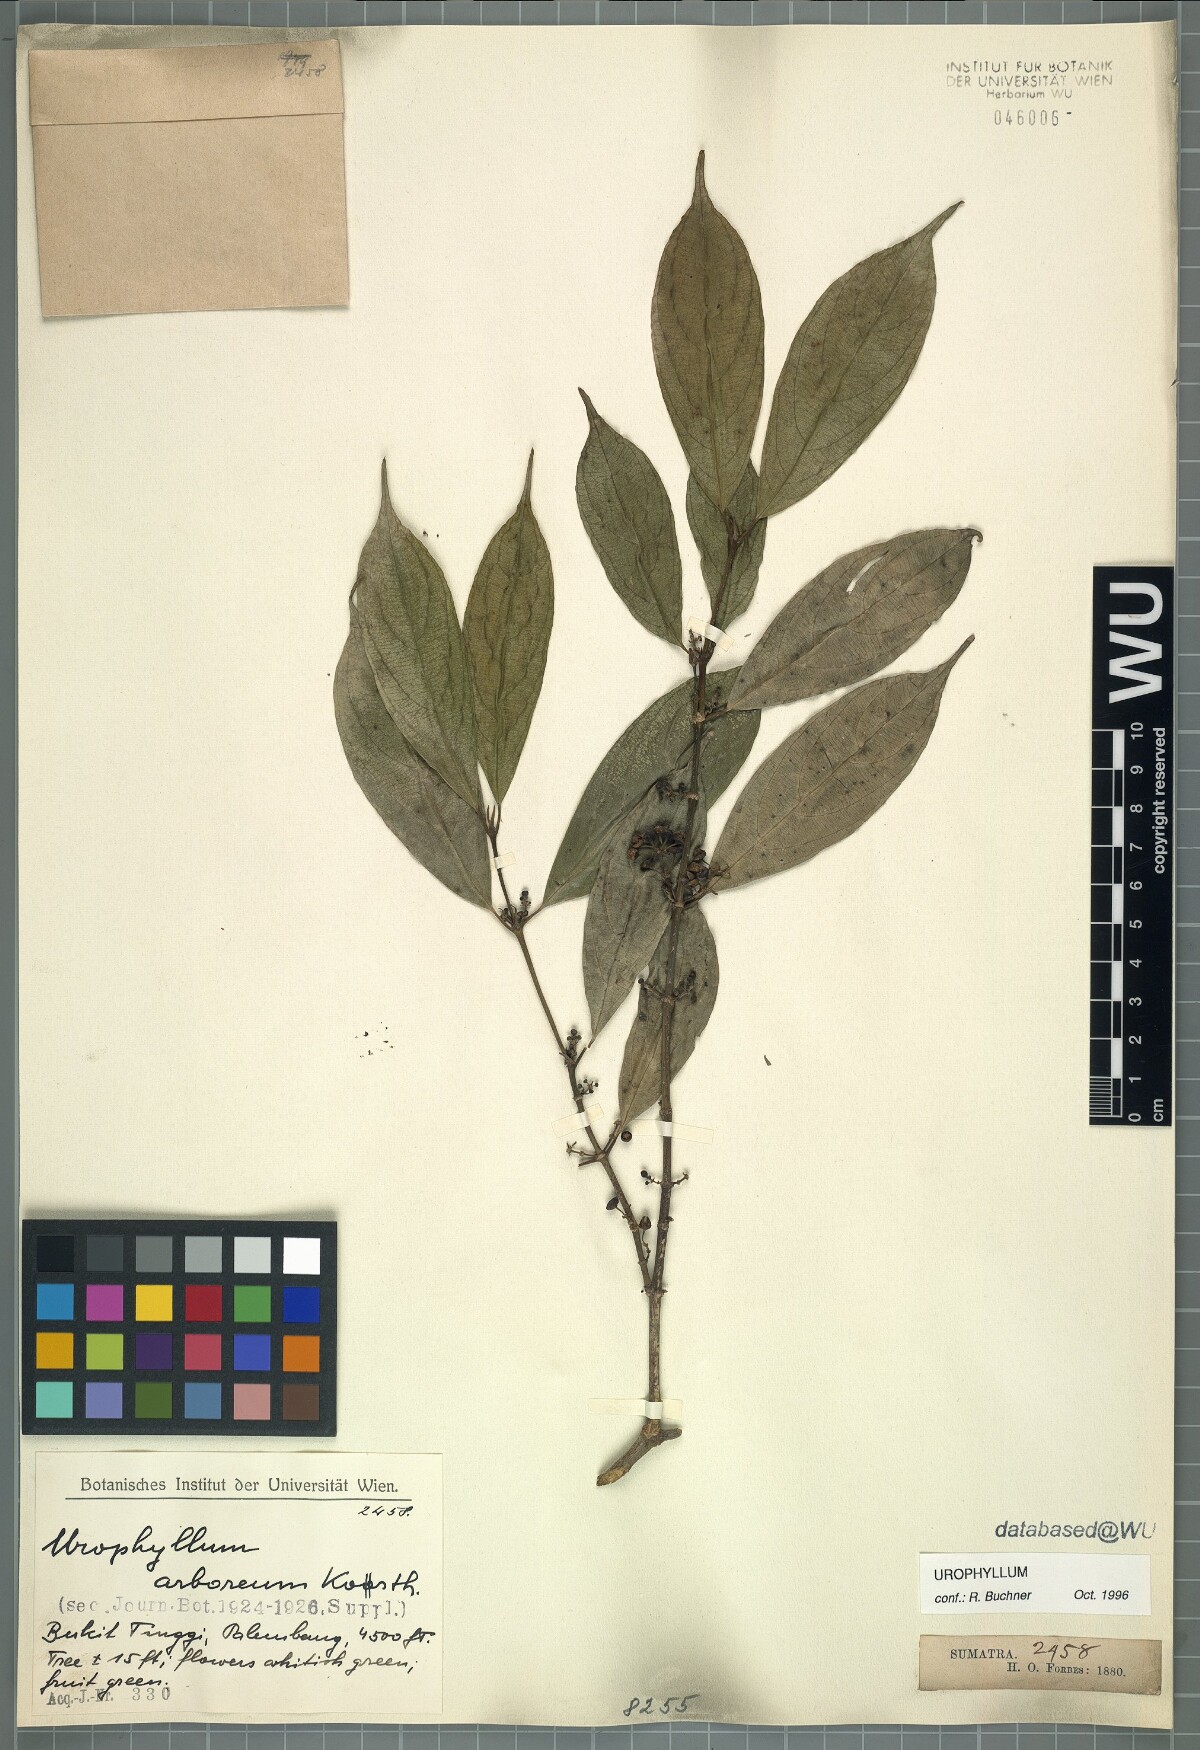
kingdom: Plantae
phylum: Tracheophyta
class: Magnoliopsida
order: Gentianales
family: Rubiaceae
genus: Urophyllum
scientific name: Urophyllum arboreum
